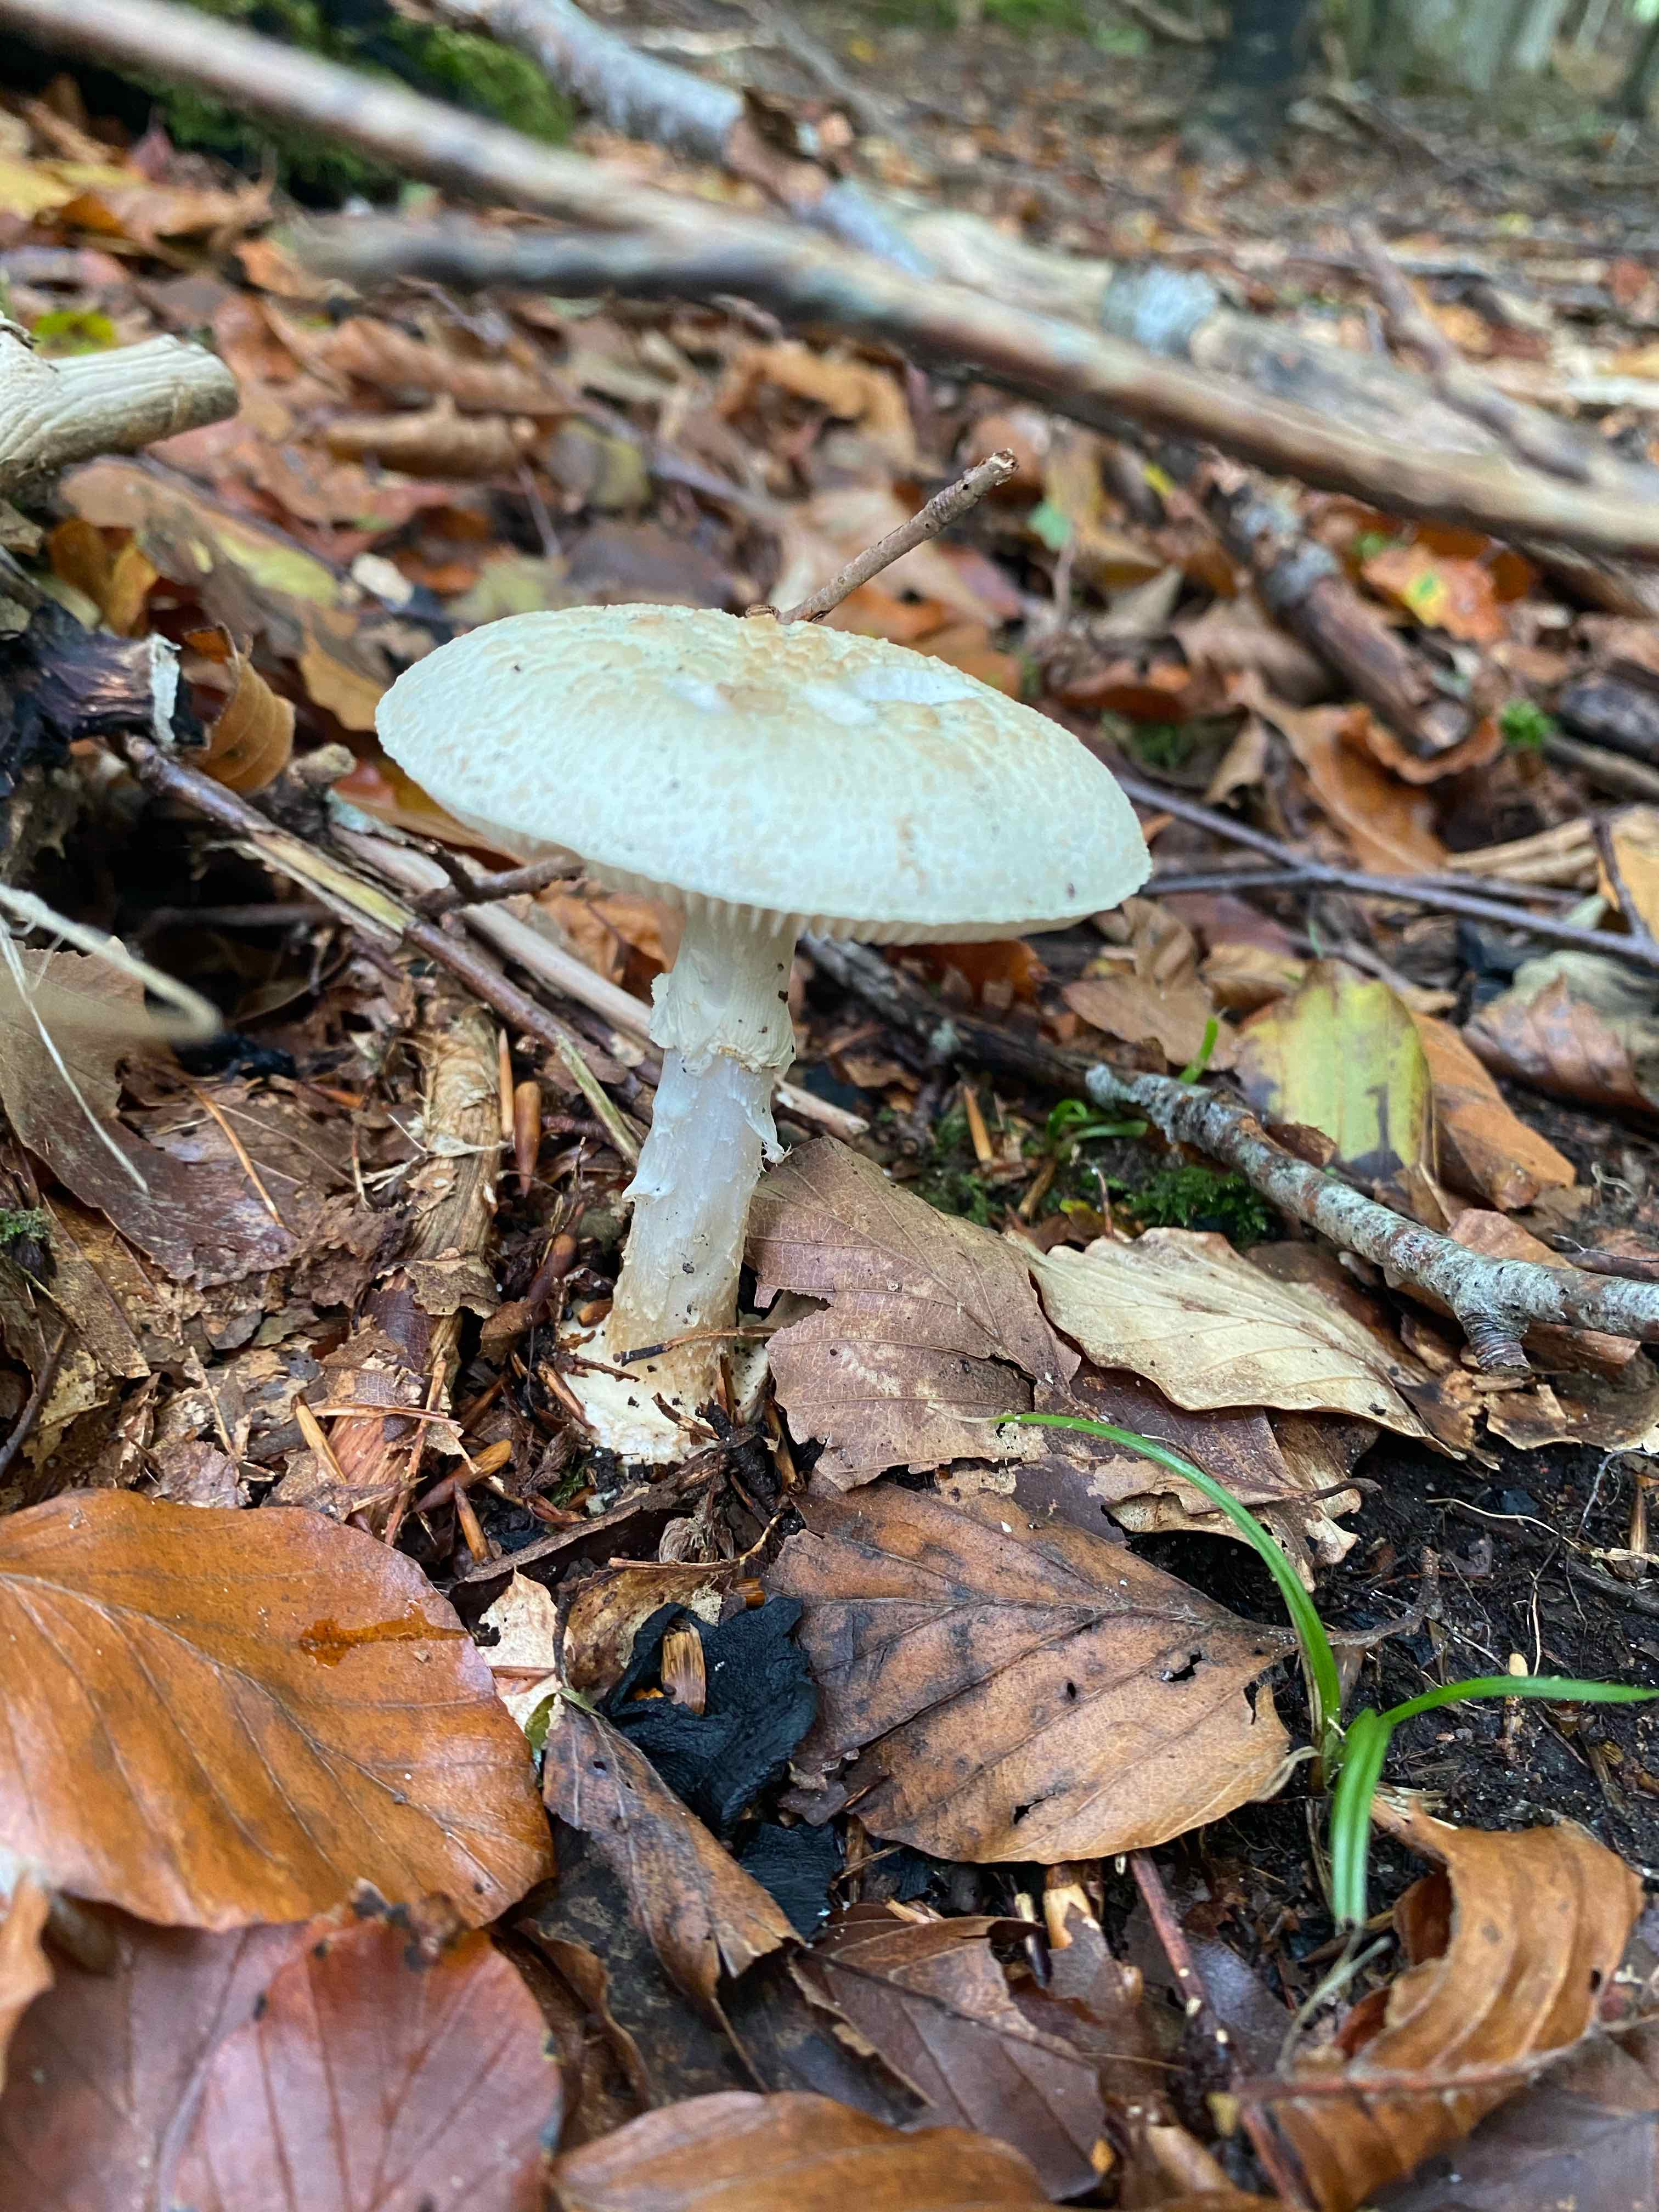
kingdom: Fungi
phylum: Basidiomycota
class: Agaricomycetes
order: Agaricales
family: Amanitaceae
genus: Amanita
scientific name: Amanita citrina
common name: kugleknoldet fluesvamp
